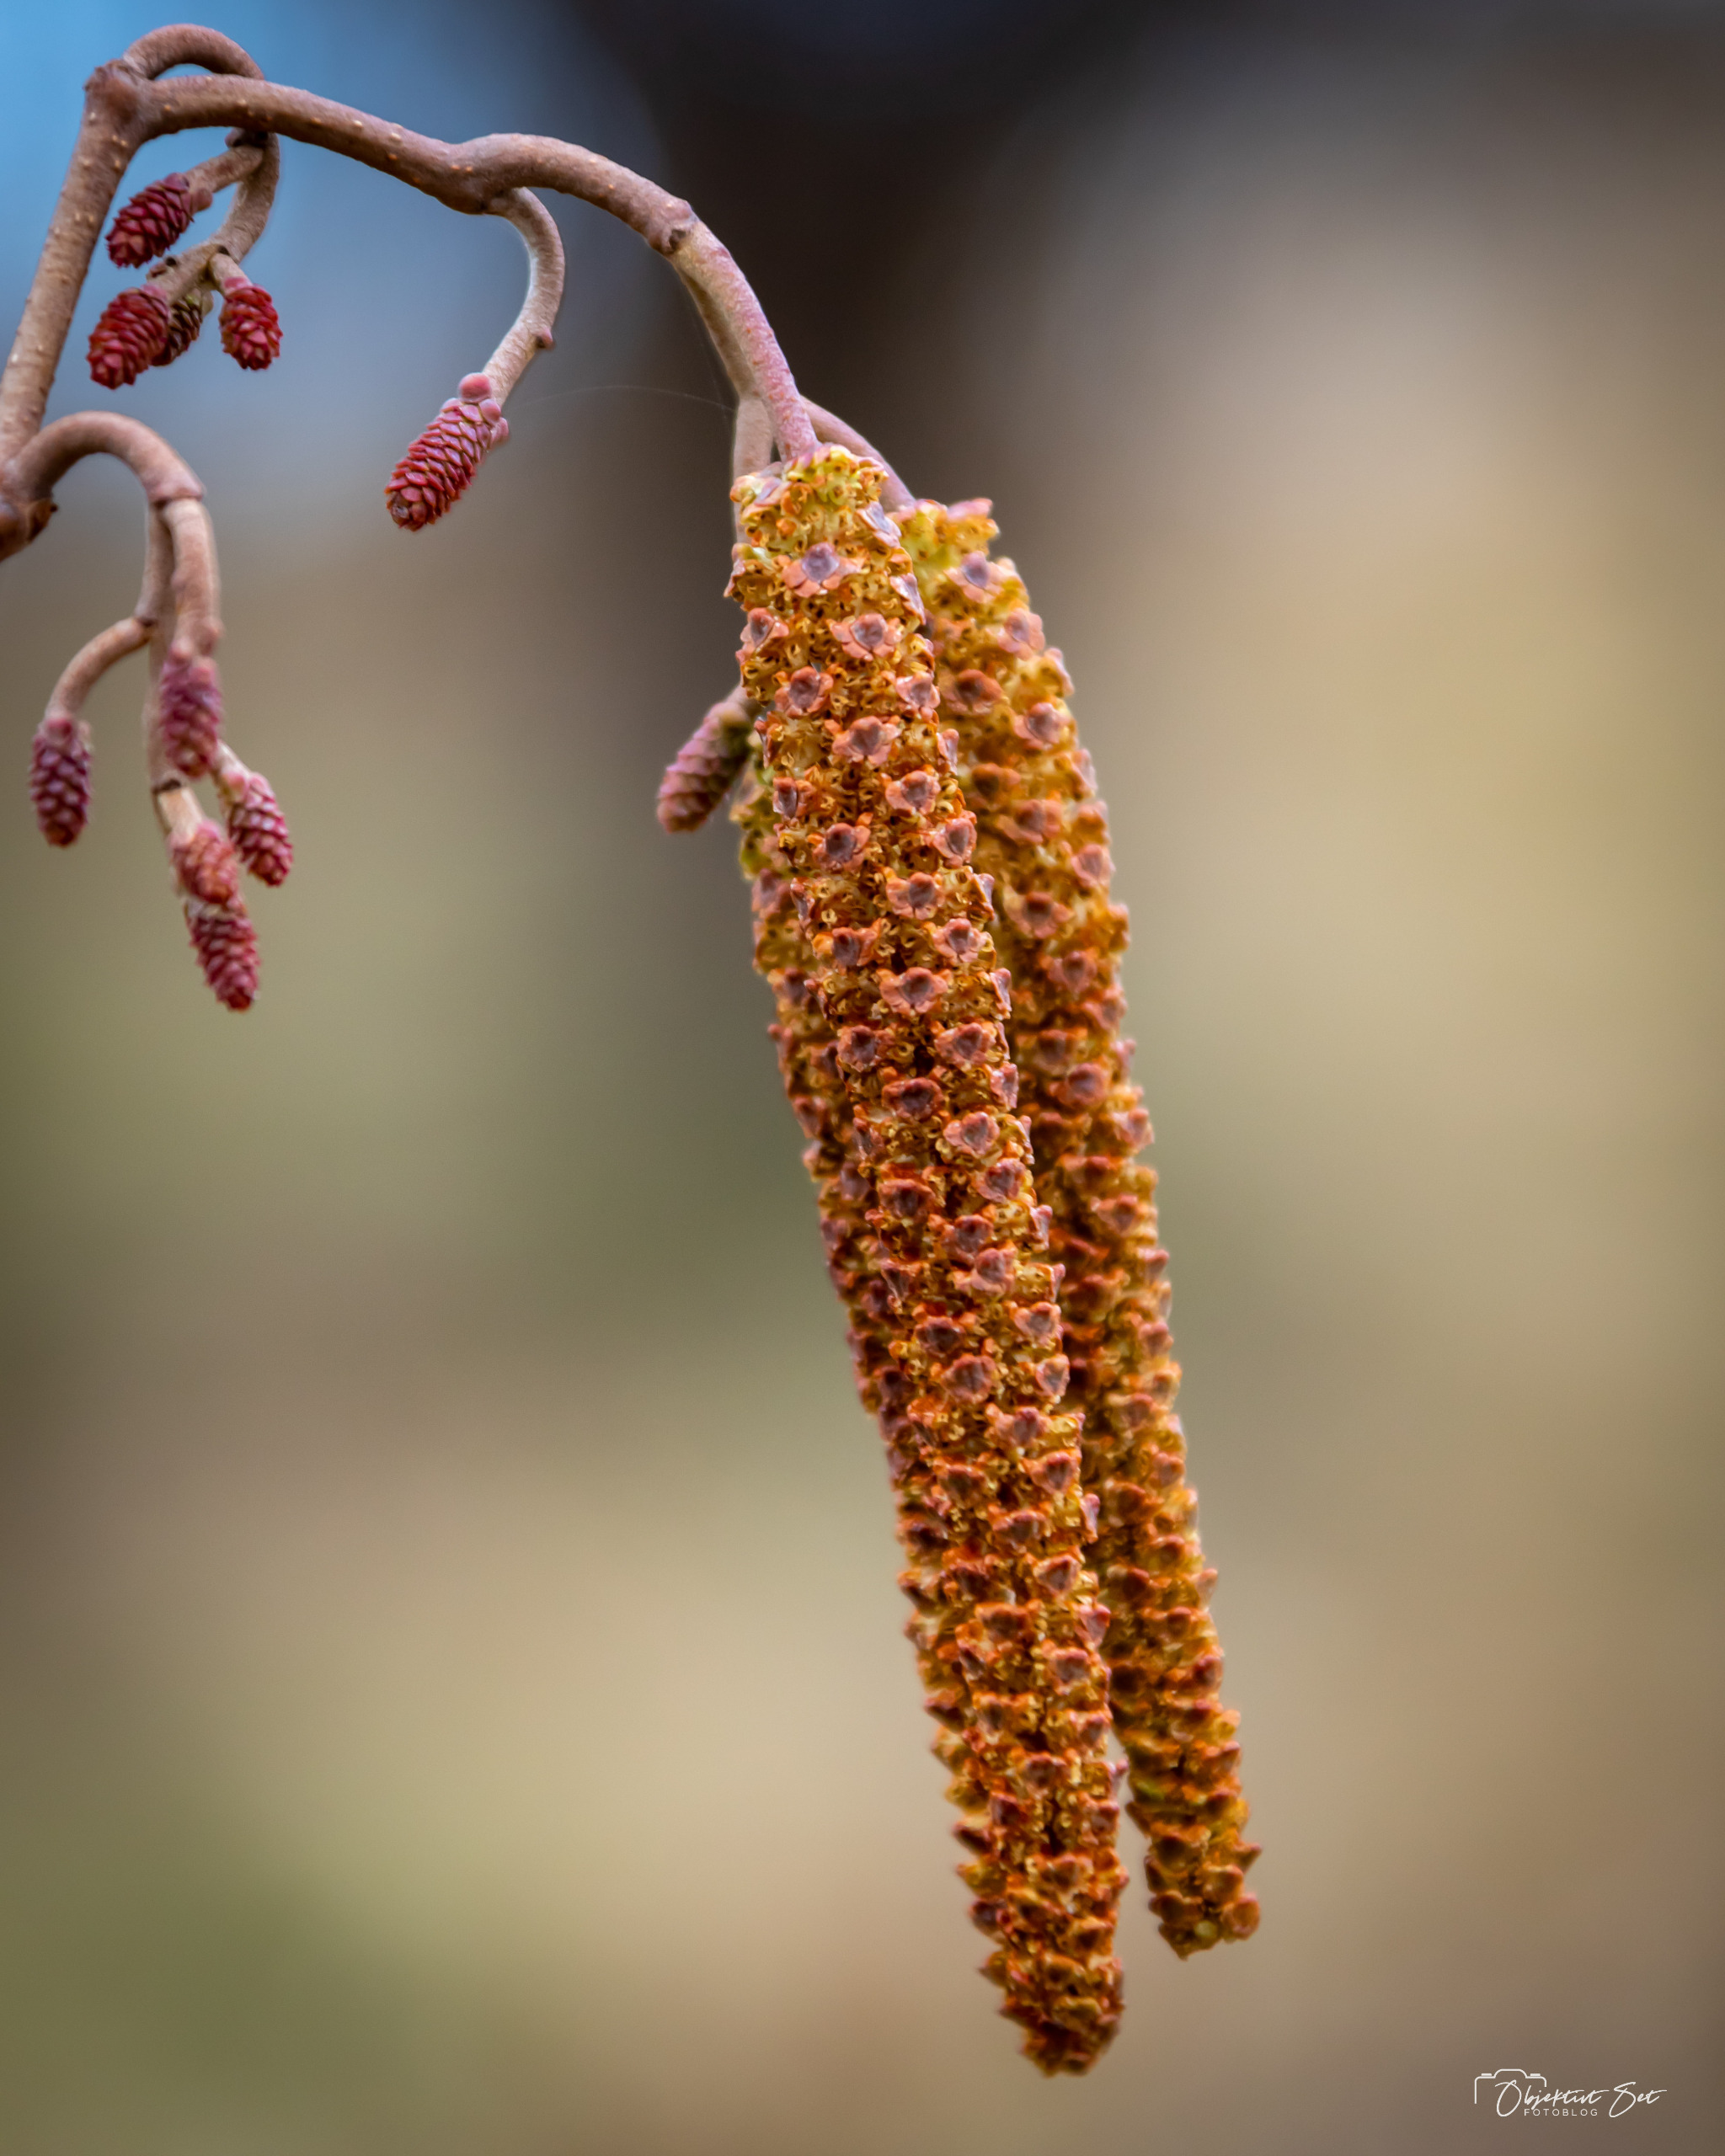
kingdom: Plantae
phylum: Tracheophyta
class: Magnoliopsida
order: Fagales
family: Betulaceae
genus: Alnus
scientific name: Alnus glutinosa
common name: Rød-el
